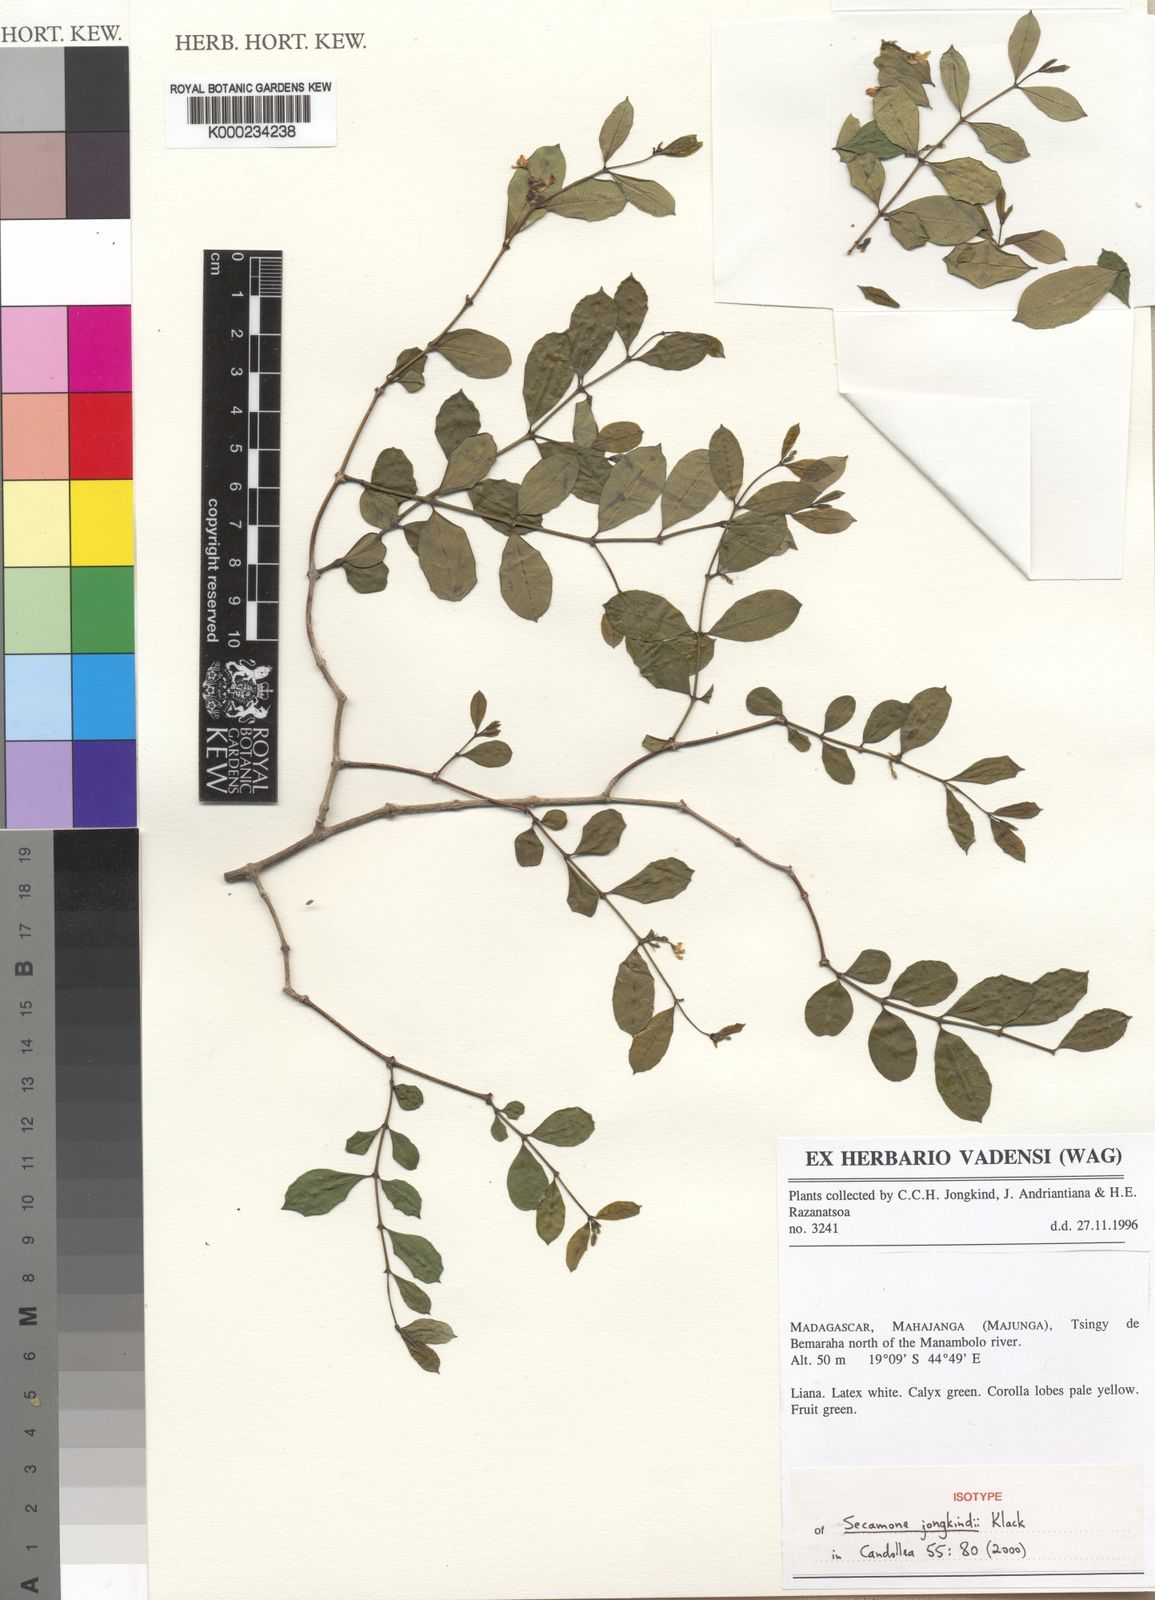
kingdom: Plantae
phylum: Tracheophyta
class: Magnoliopsida
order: Gentianales
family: Apocynaceae
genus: Secamone
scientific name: Secamone jongkindii
